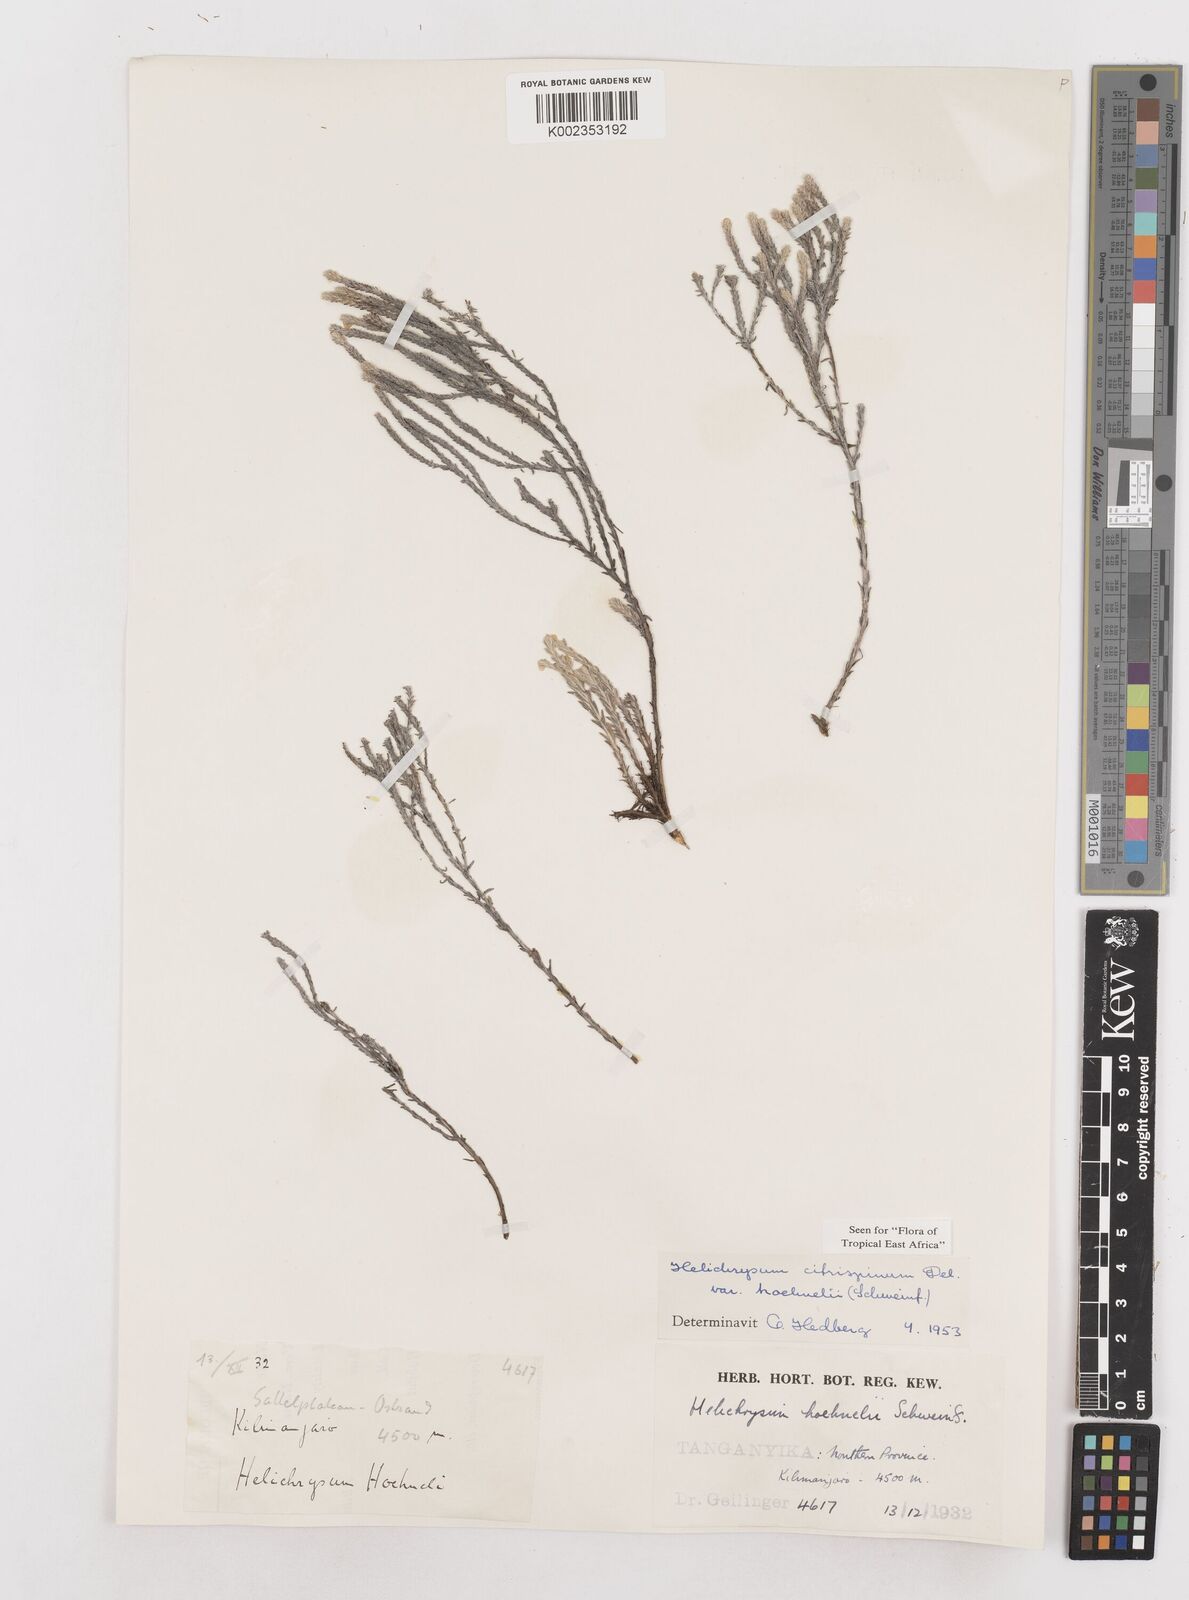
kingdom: Plantae
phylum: Tracheophyta
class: Magnoliopsida
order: Asterales
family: Asteraceae
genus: Helichrysum
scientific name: Helichrysum citrispinum
